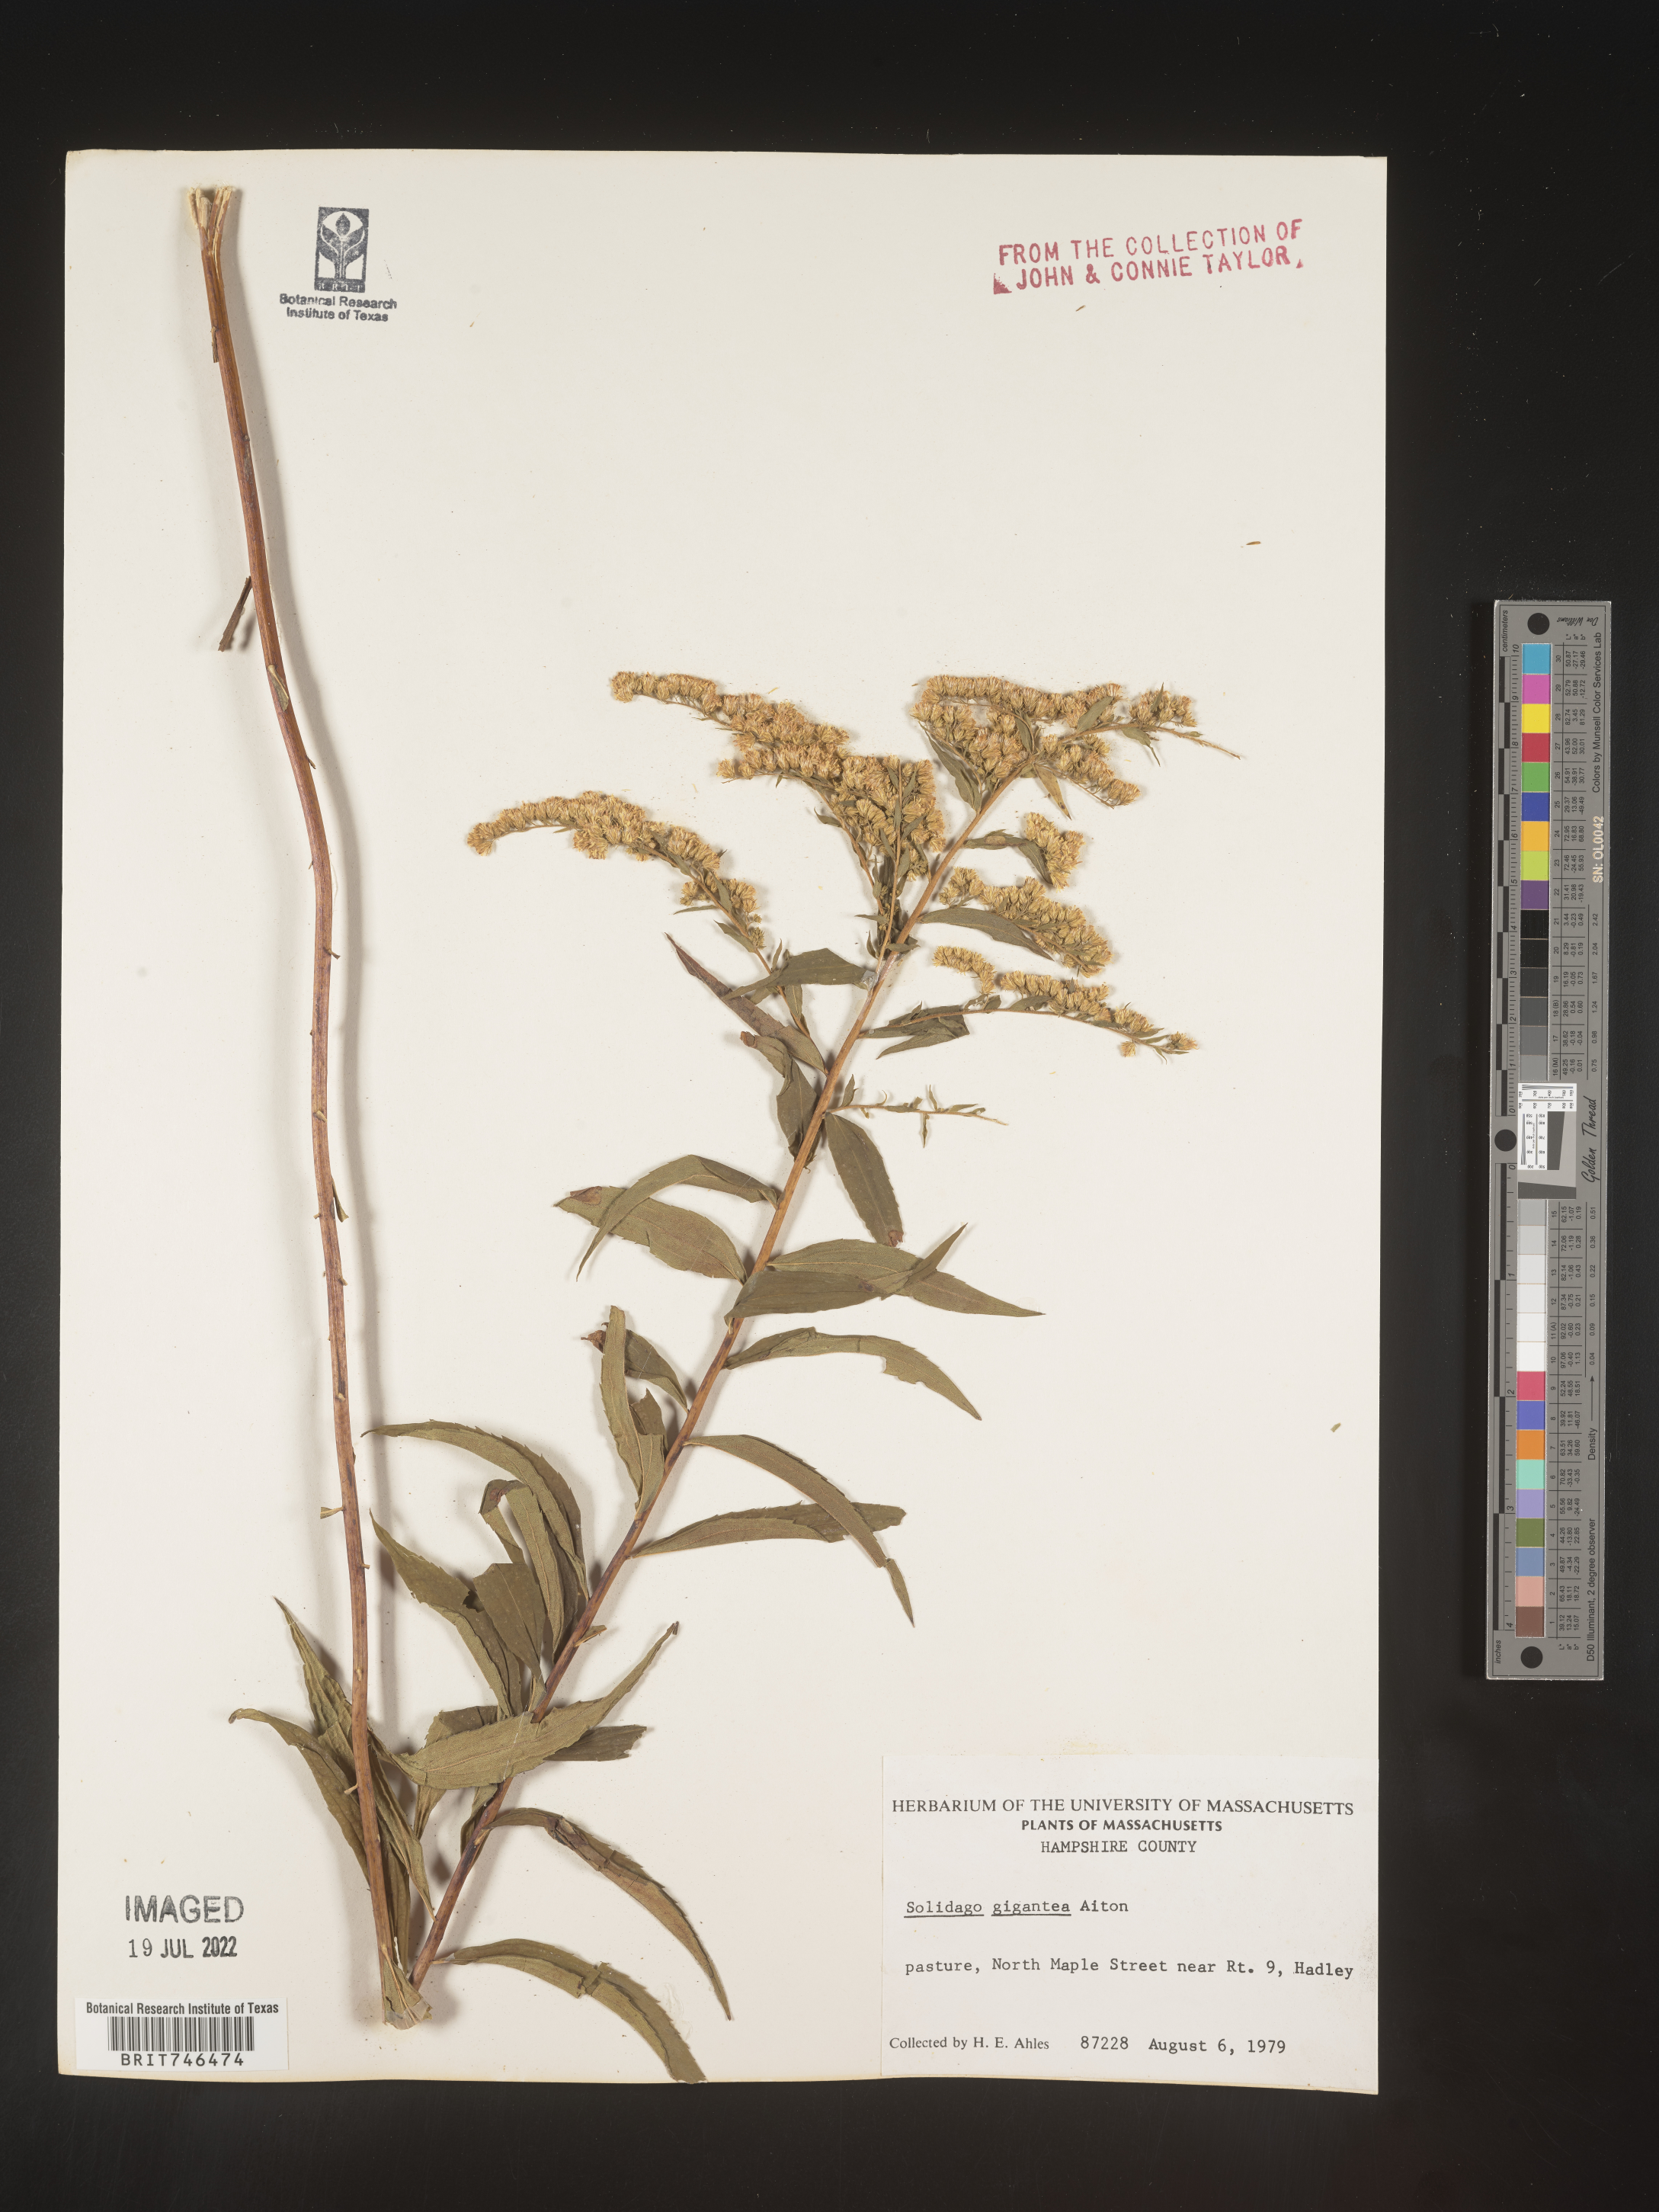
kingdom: Plantae
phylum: Tracheophyta
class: Magnoliopsida
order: Asterales
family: Asteraceae
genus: Solidago
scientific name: Solidago gigantea
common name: Giant goldenrod
